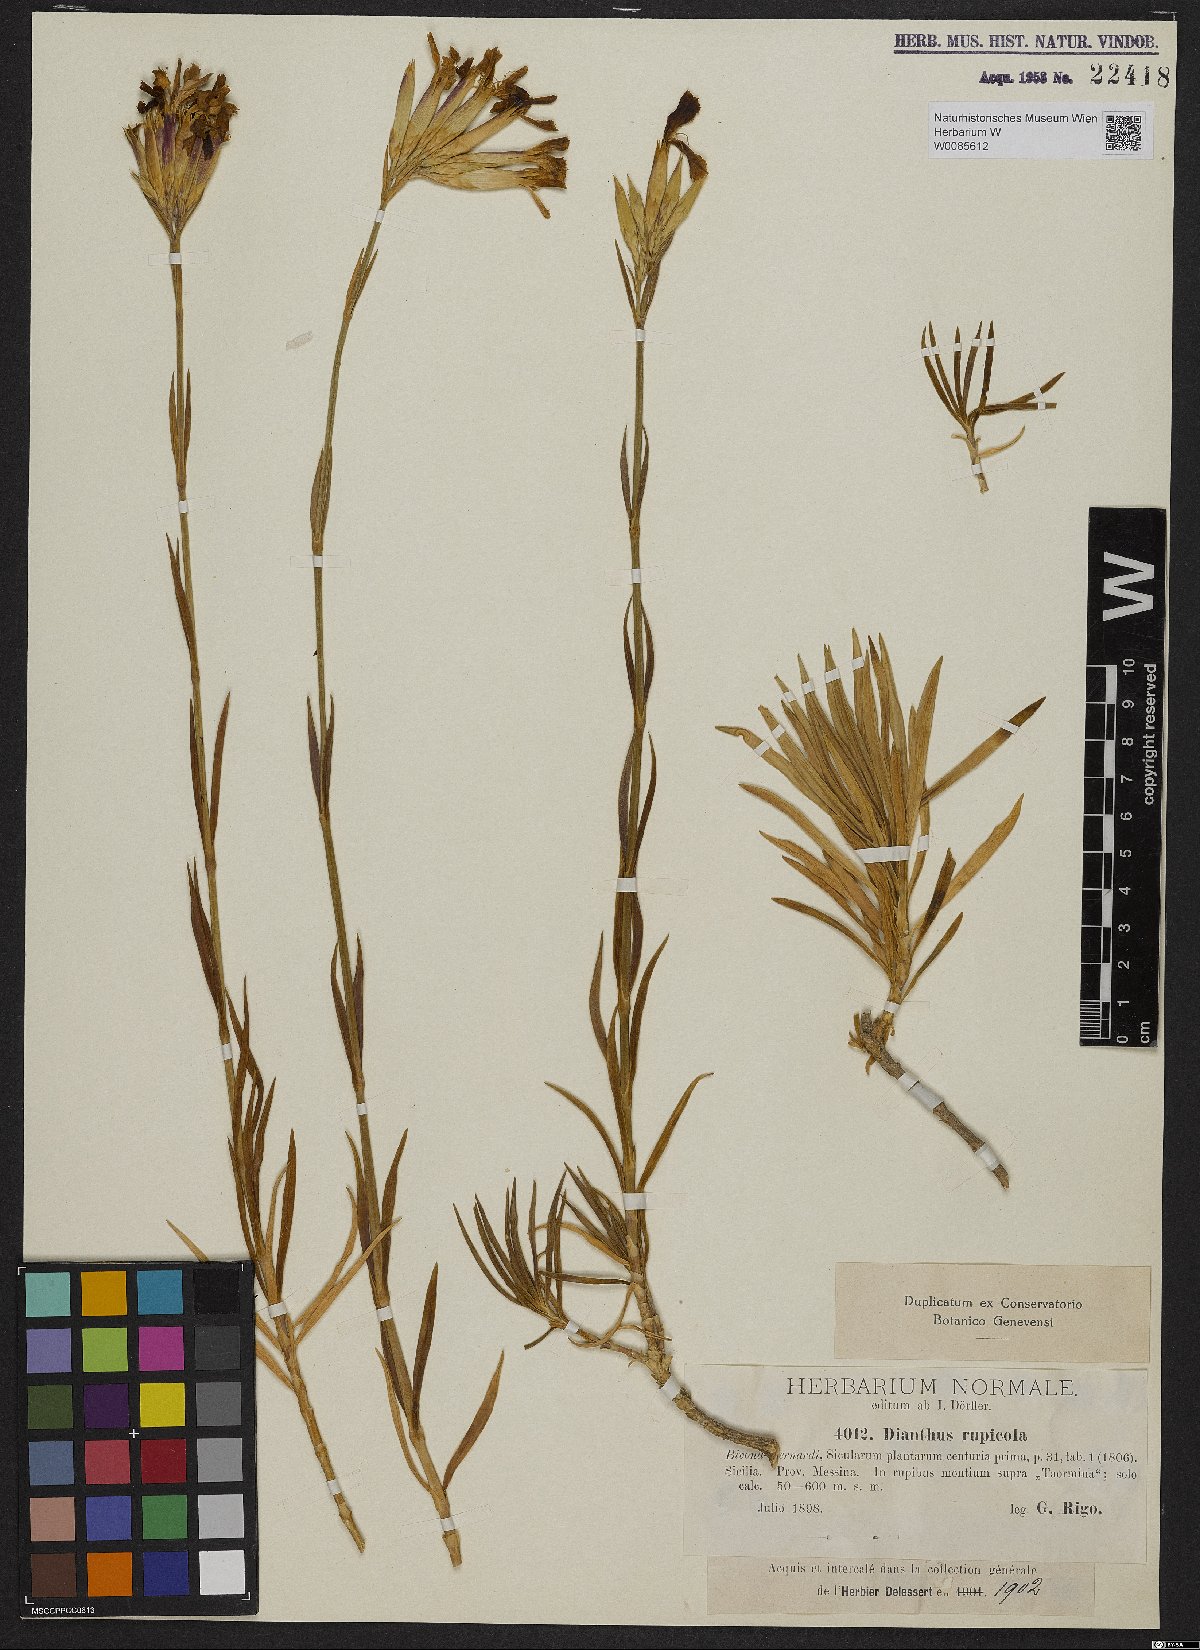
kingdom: Plantae
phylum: Tracheophyta
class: Magnoliopsida
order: Caryophyllales
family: Caryophyllaceae
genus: Dianthus
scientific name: Dianthus rupicola
